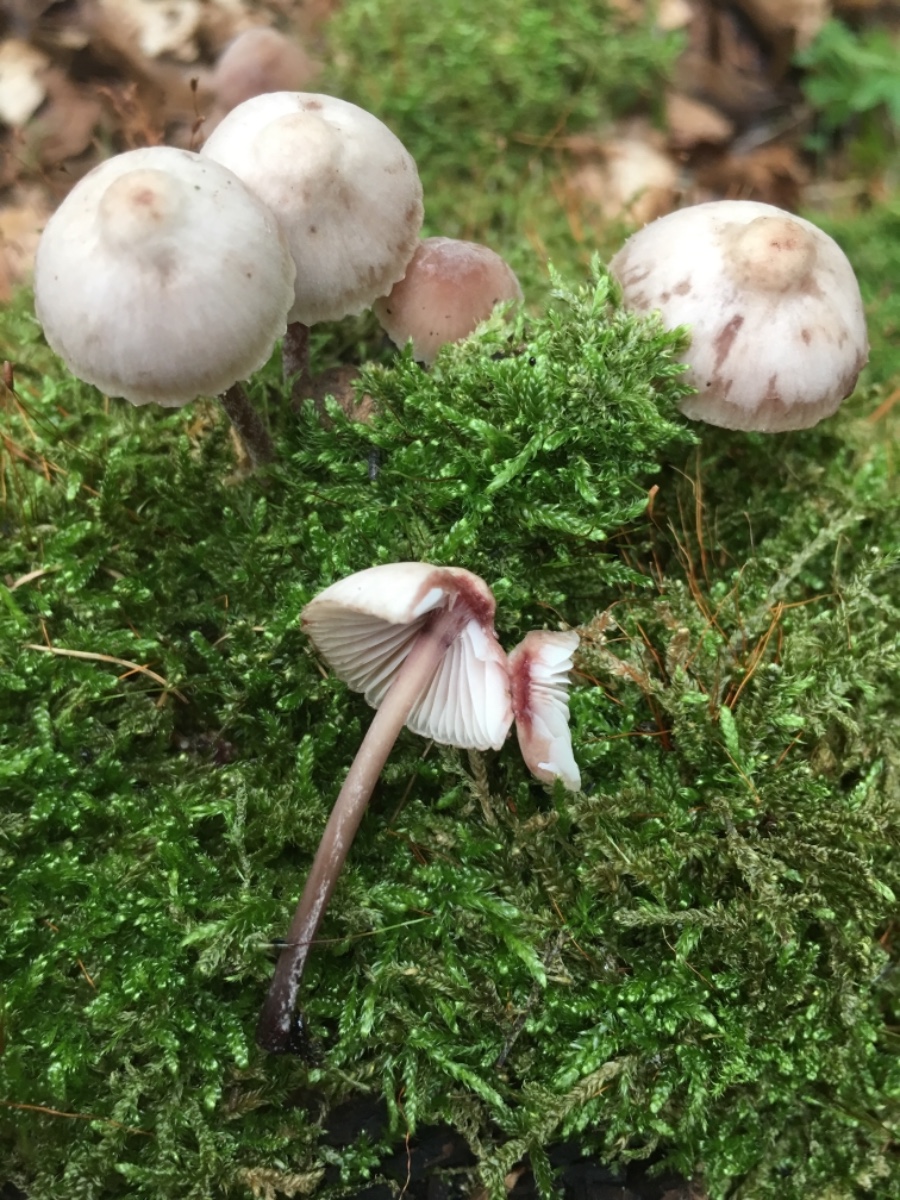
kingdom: Fungi
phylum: Basidiomycota
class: Agaricomycetes
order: Agaricales
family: Mycenaceae
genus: Mycena
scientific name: Mycena haematopus
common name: blødende huesvamp
